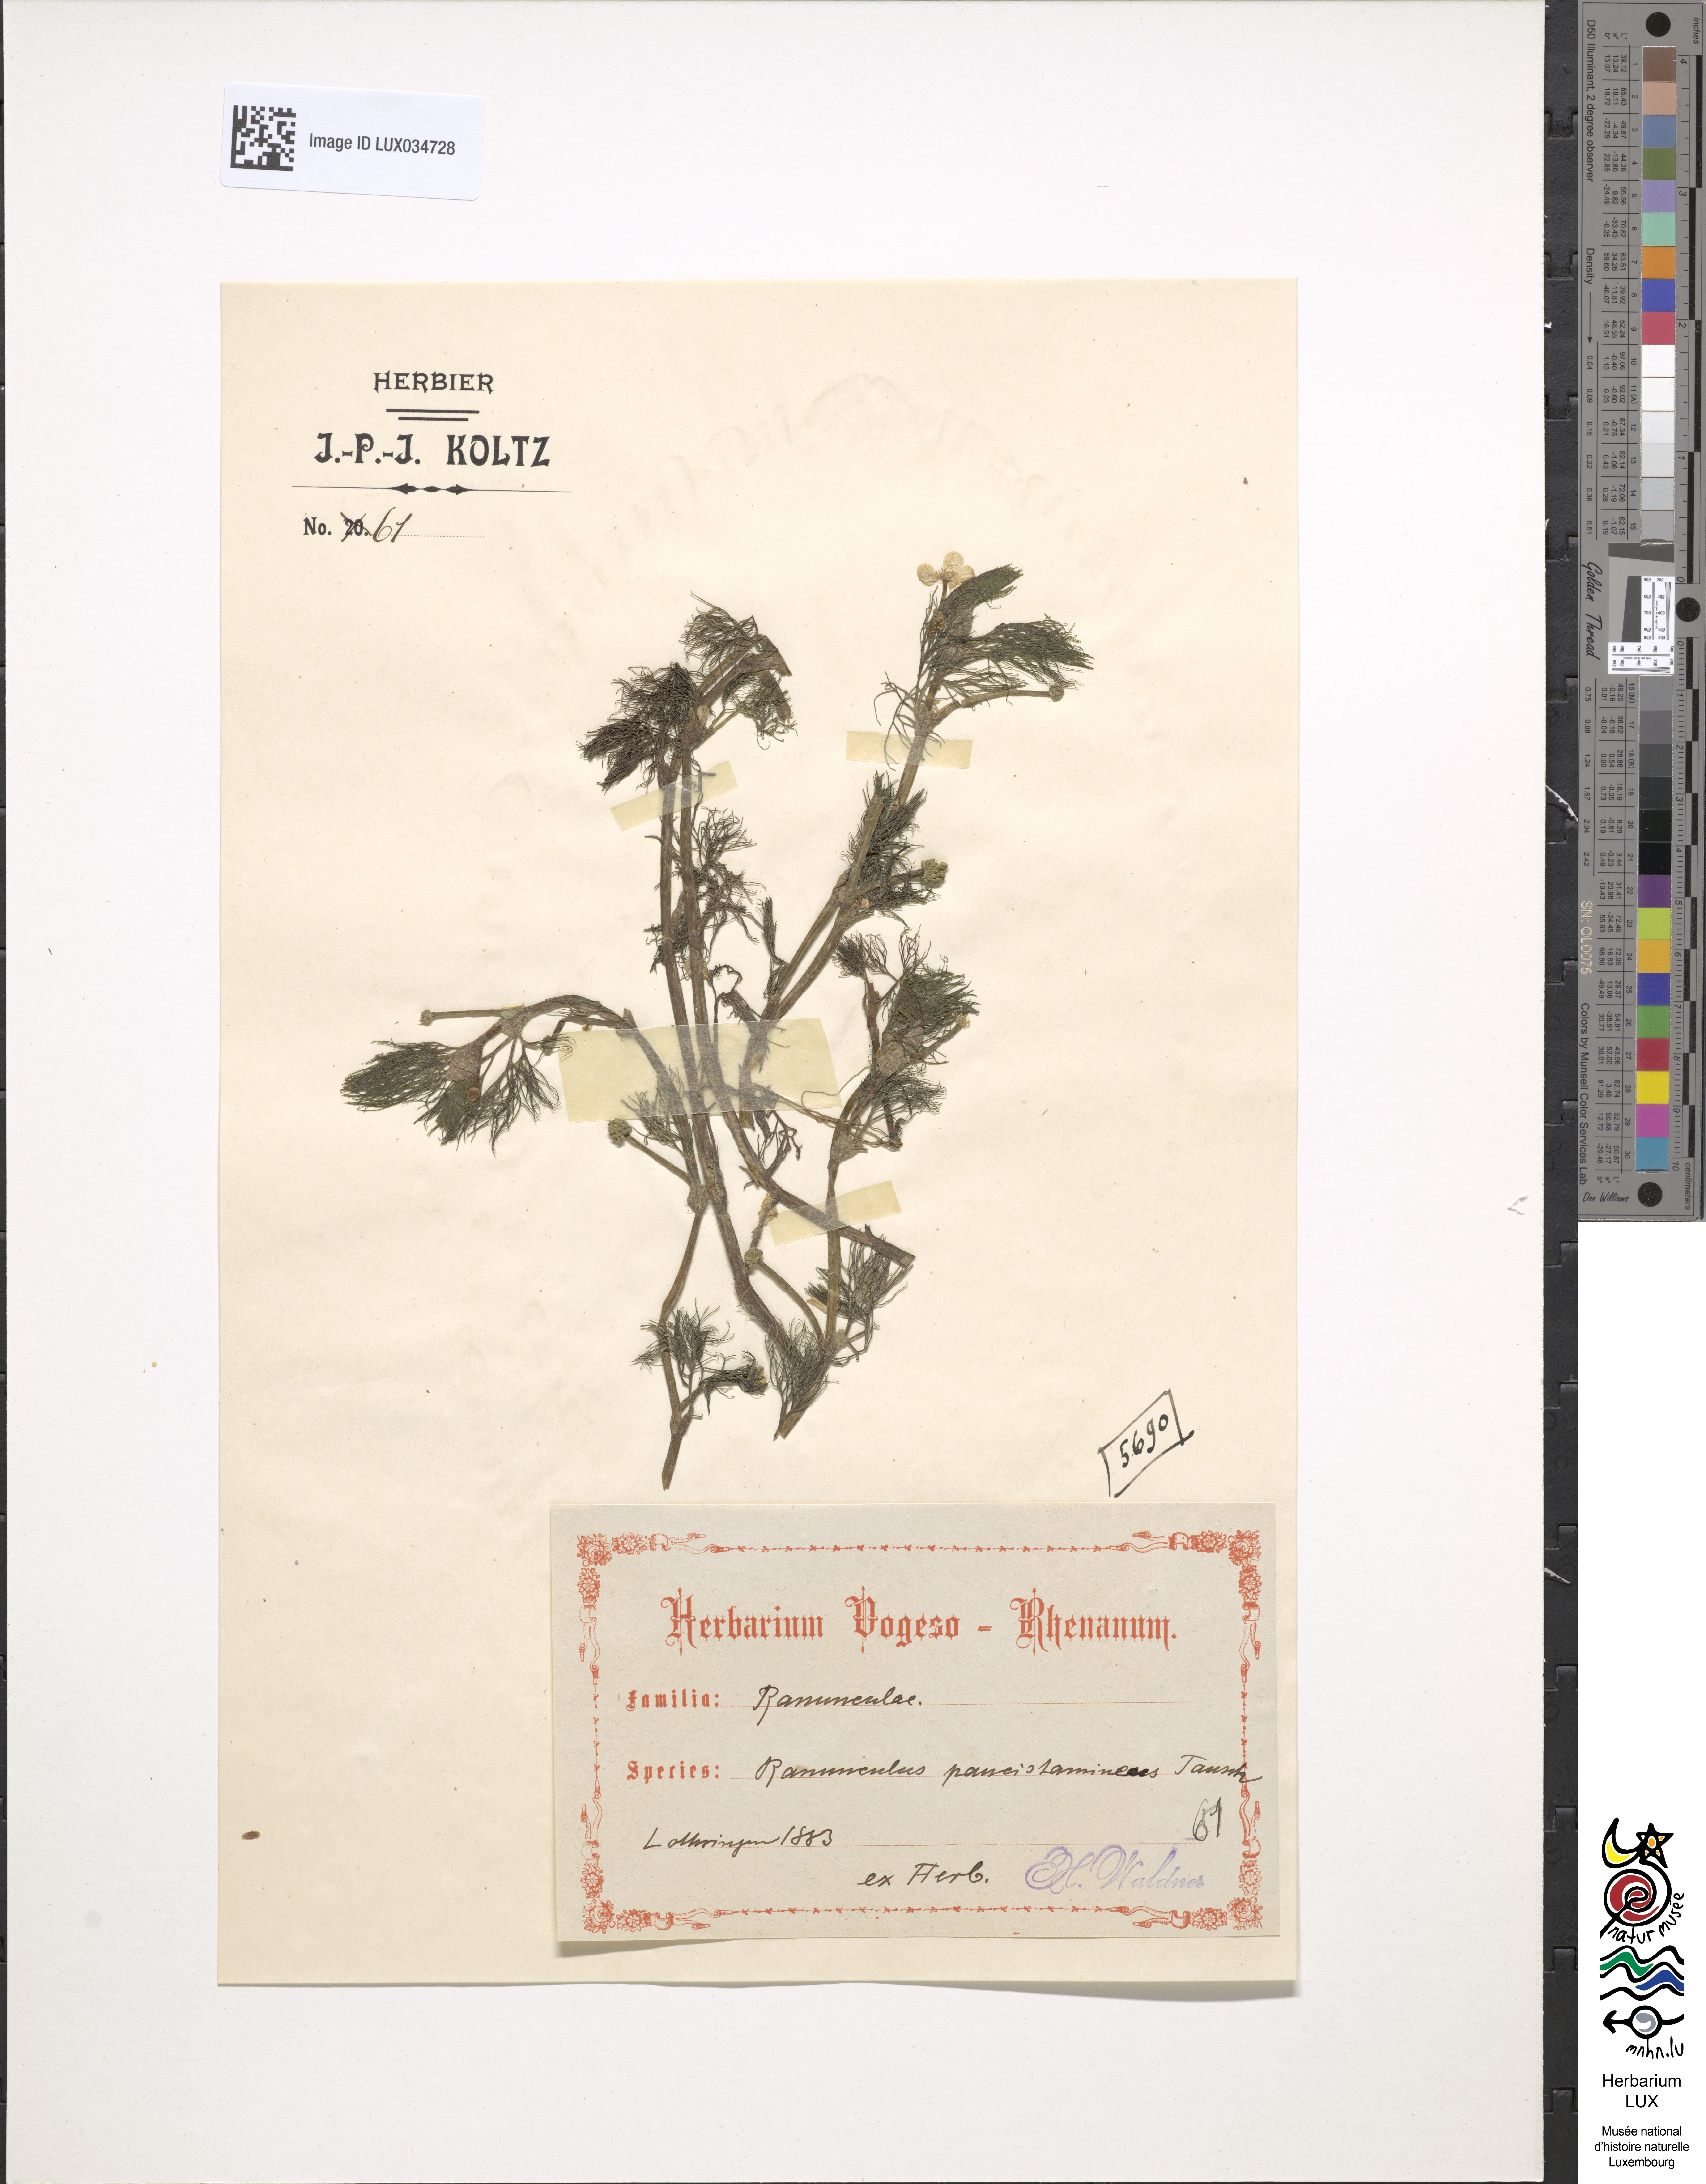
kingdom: Plantae
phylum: Tracheophyta
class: Magnoliopsida
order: Ranunculales
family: Ranunculaceae
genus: Ranunculus
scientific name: Ranunculus
